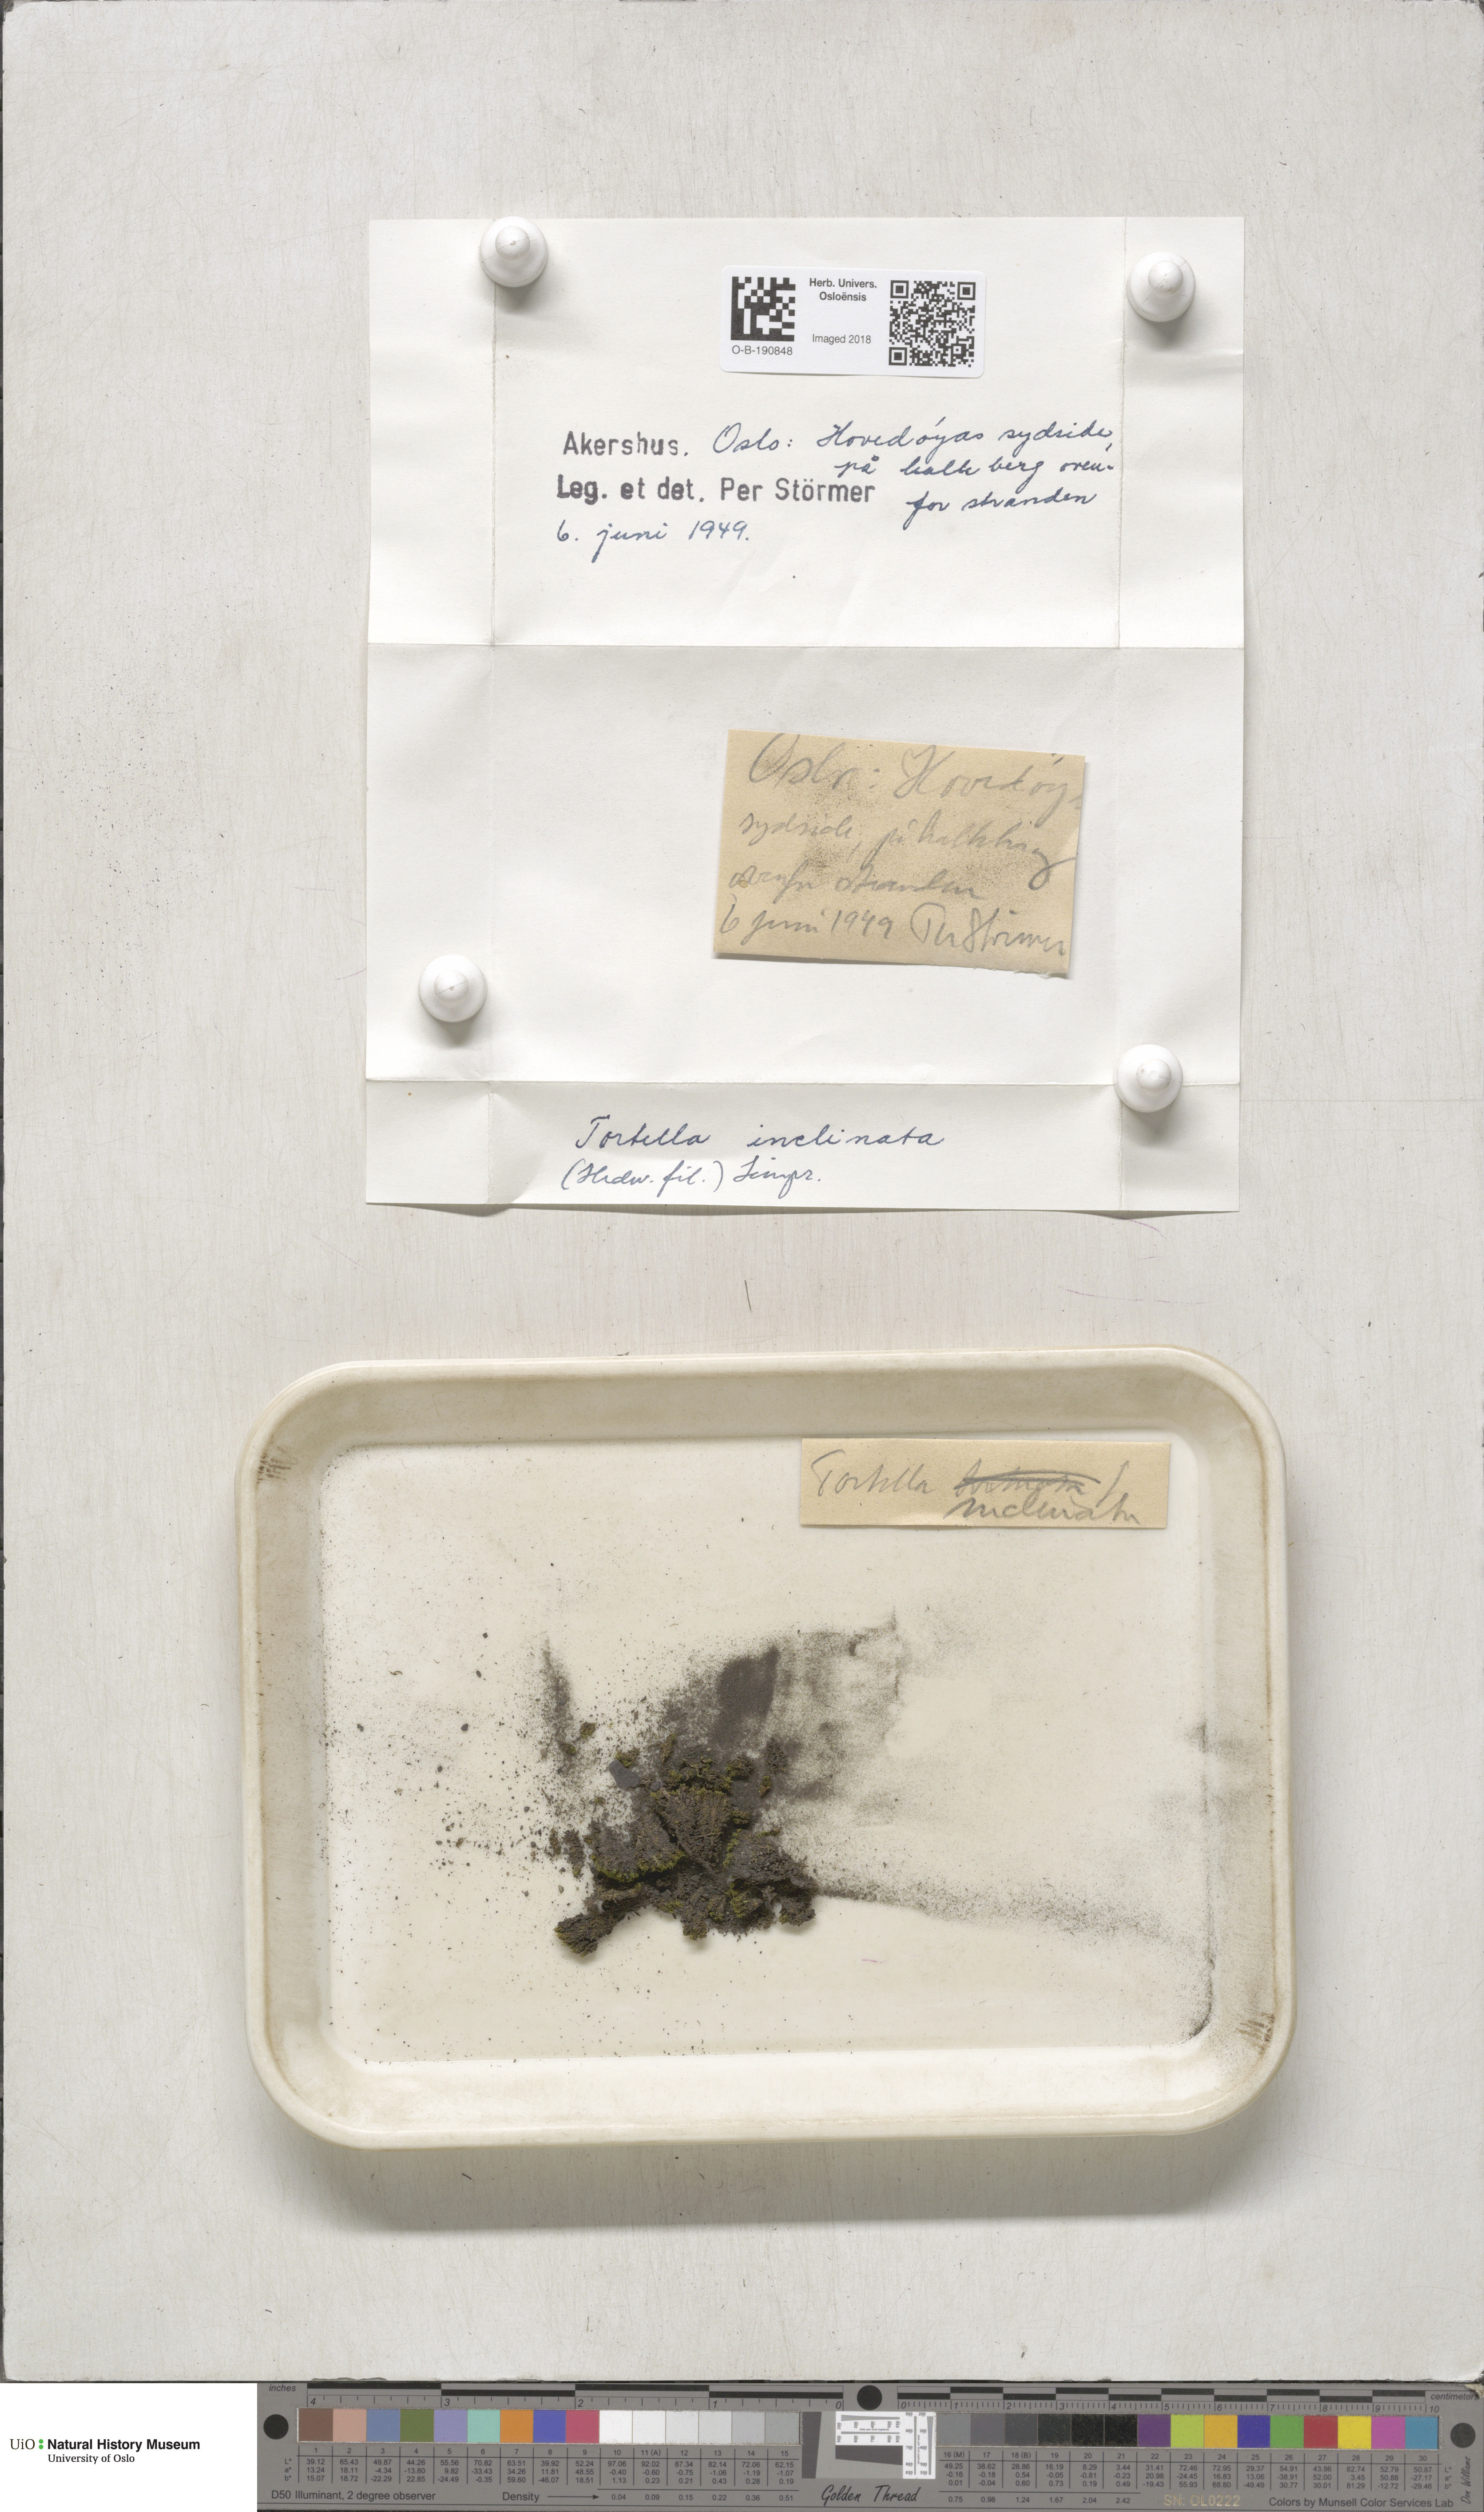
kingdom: Plantae
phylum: Bryophyta
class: Bryopsida
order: Pottiales
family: Pottiaceae
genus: Tortella
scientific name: Tortella inclinata
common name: Inclined twisted moss
